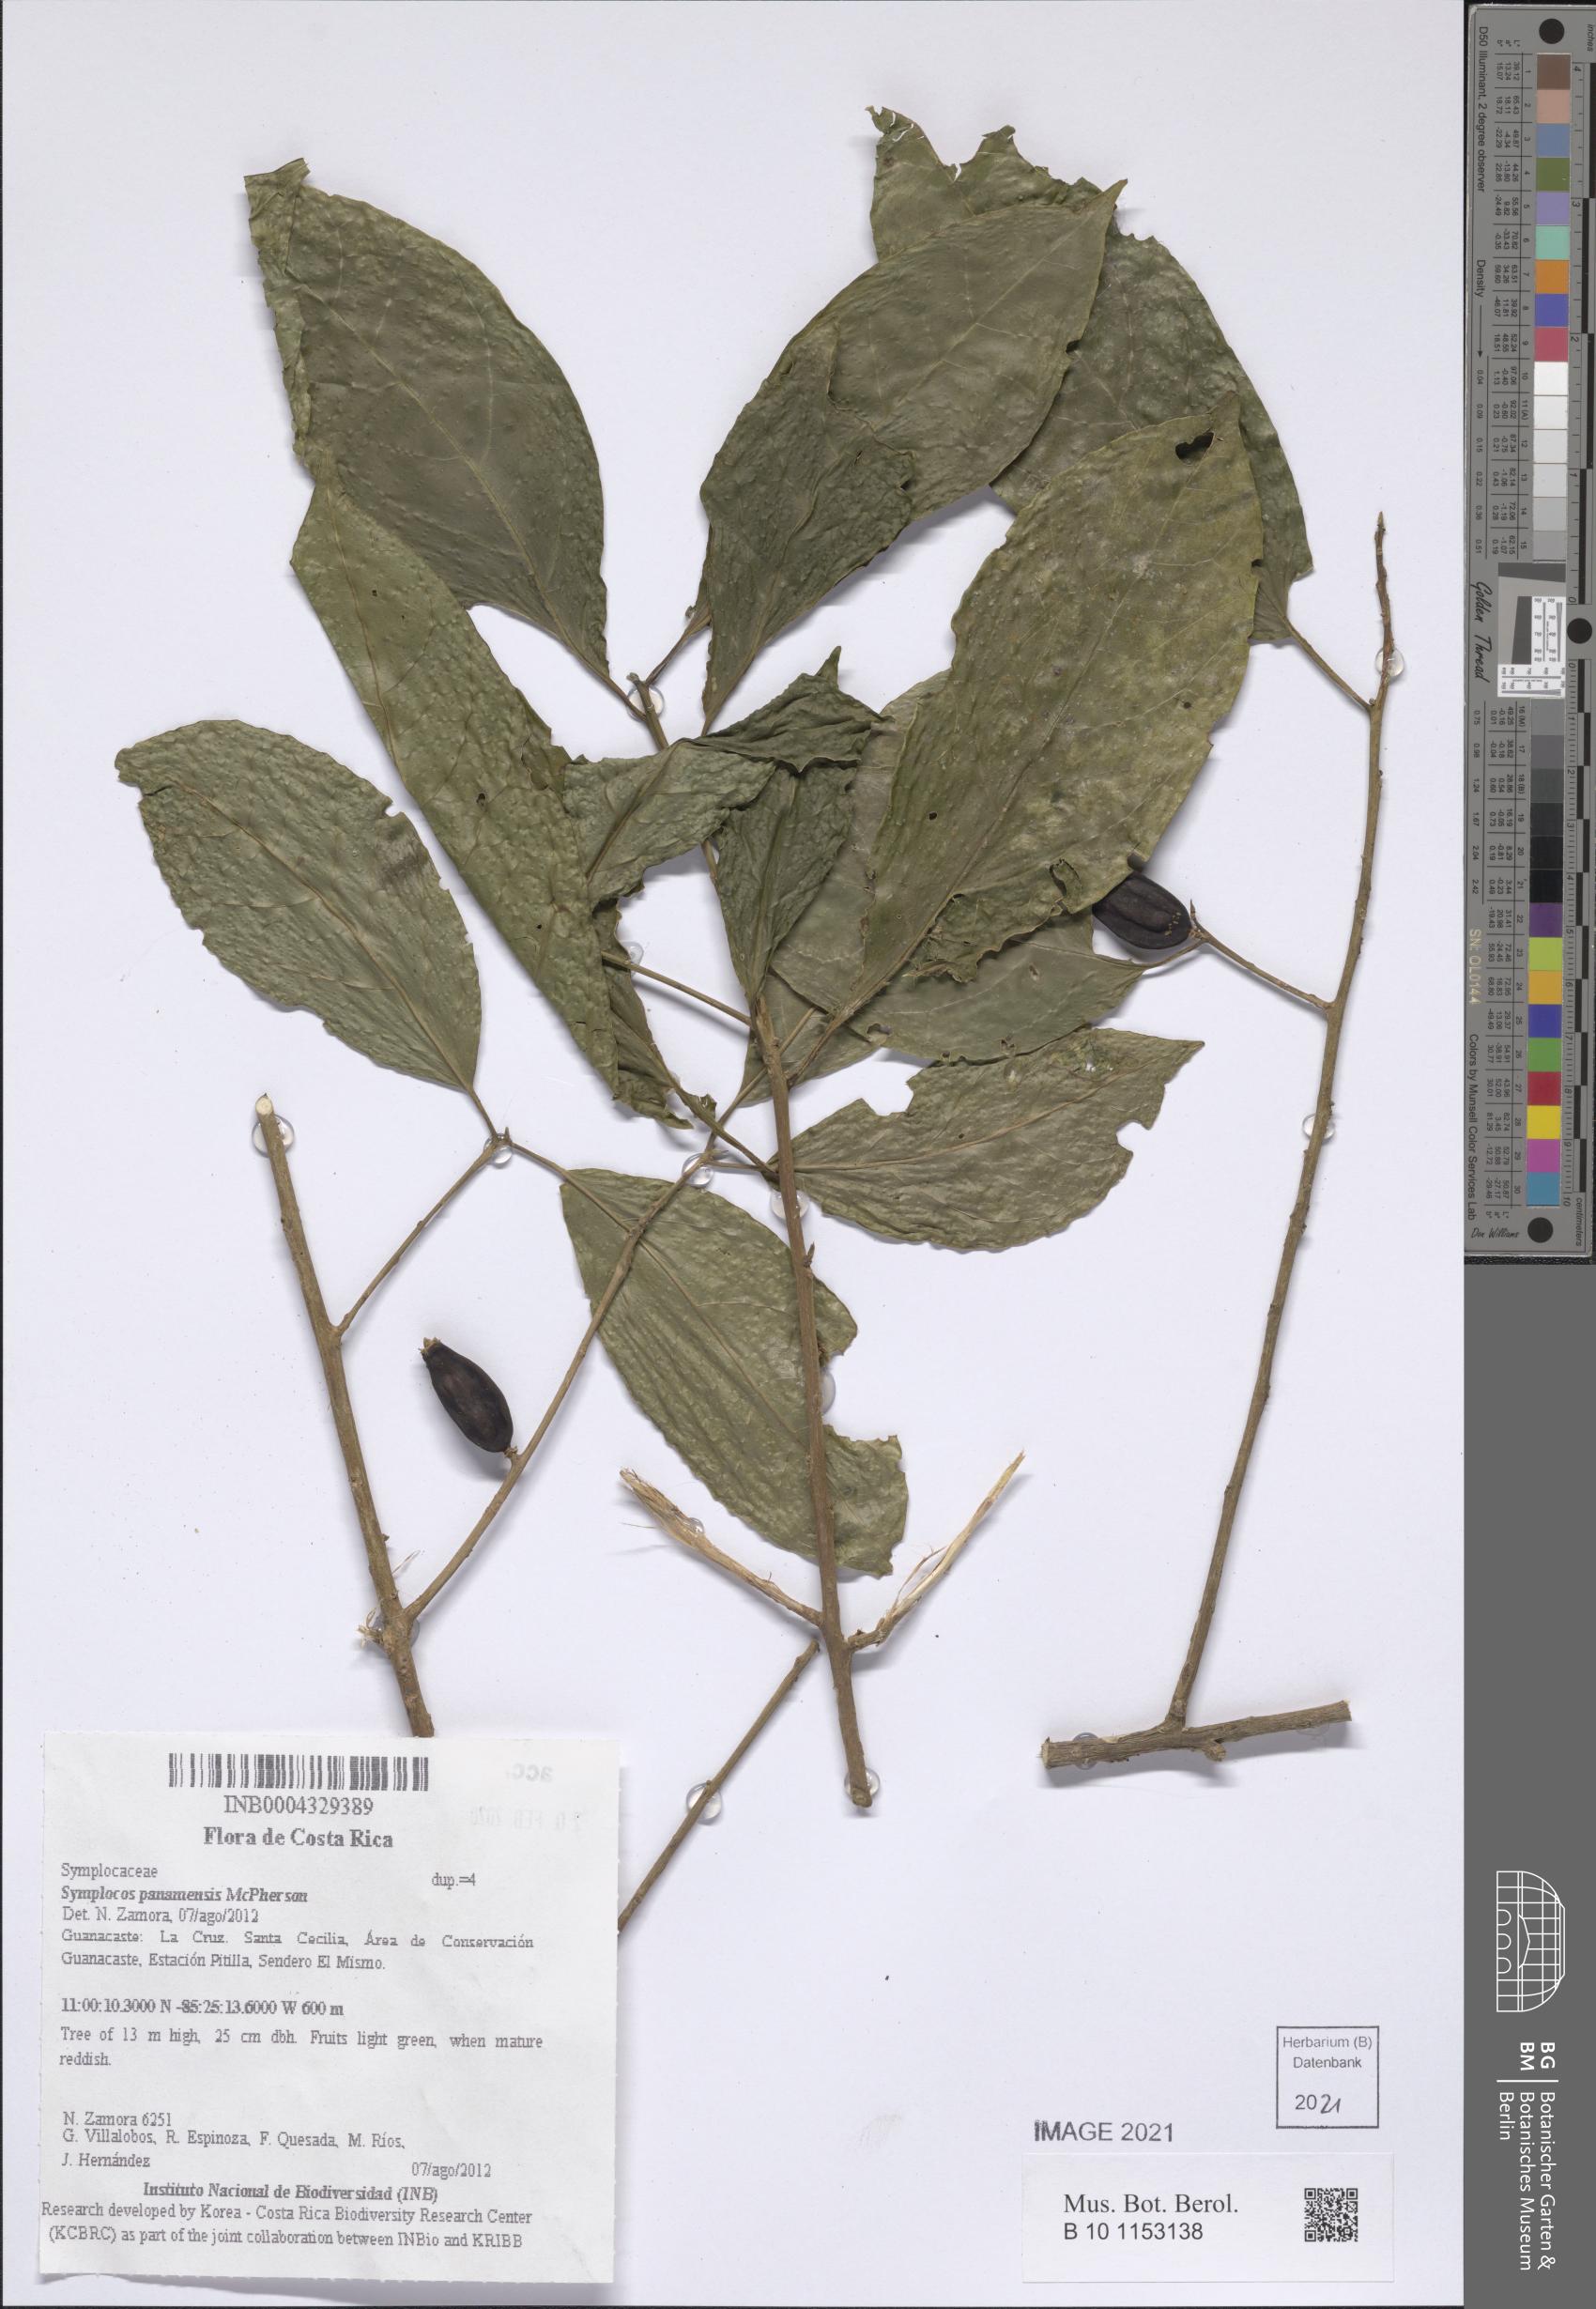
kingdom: Plantae
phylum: Tracheophyta
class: Magnoliopsida
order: Ericales
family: Symplocaceae
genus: Symplocos
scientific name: Symplocos panamensis
